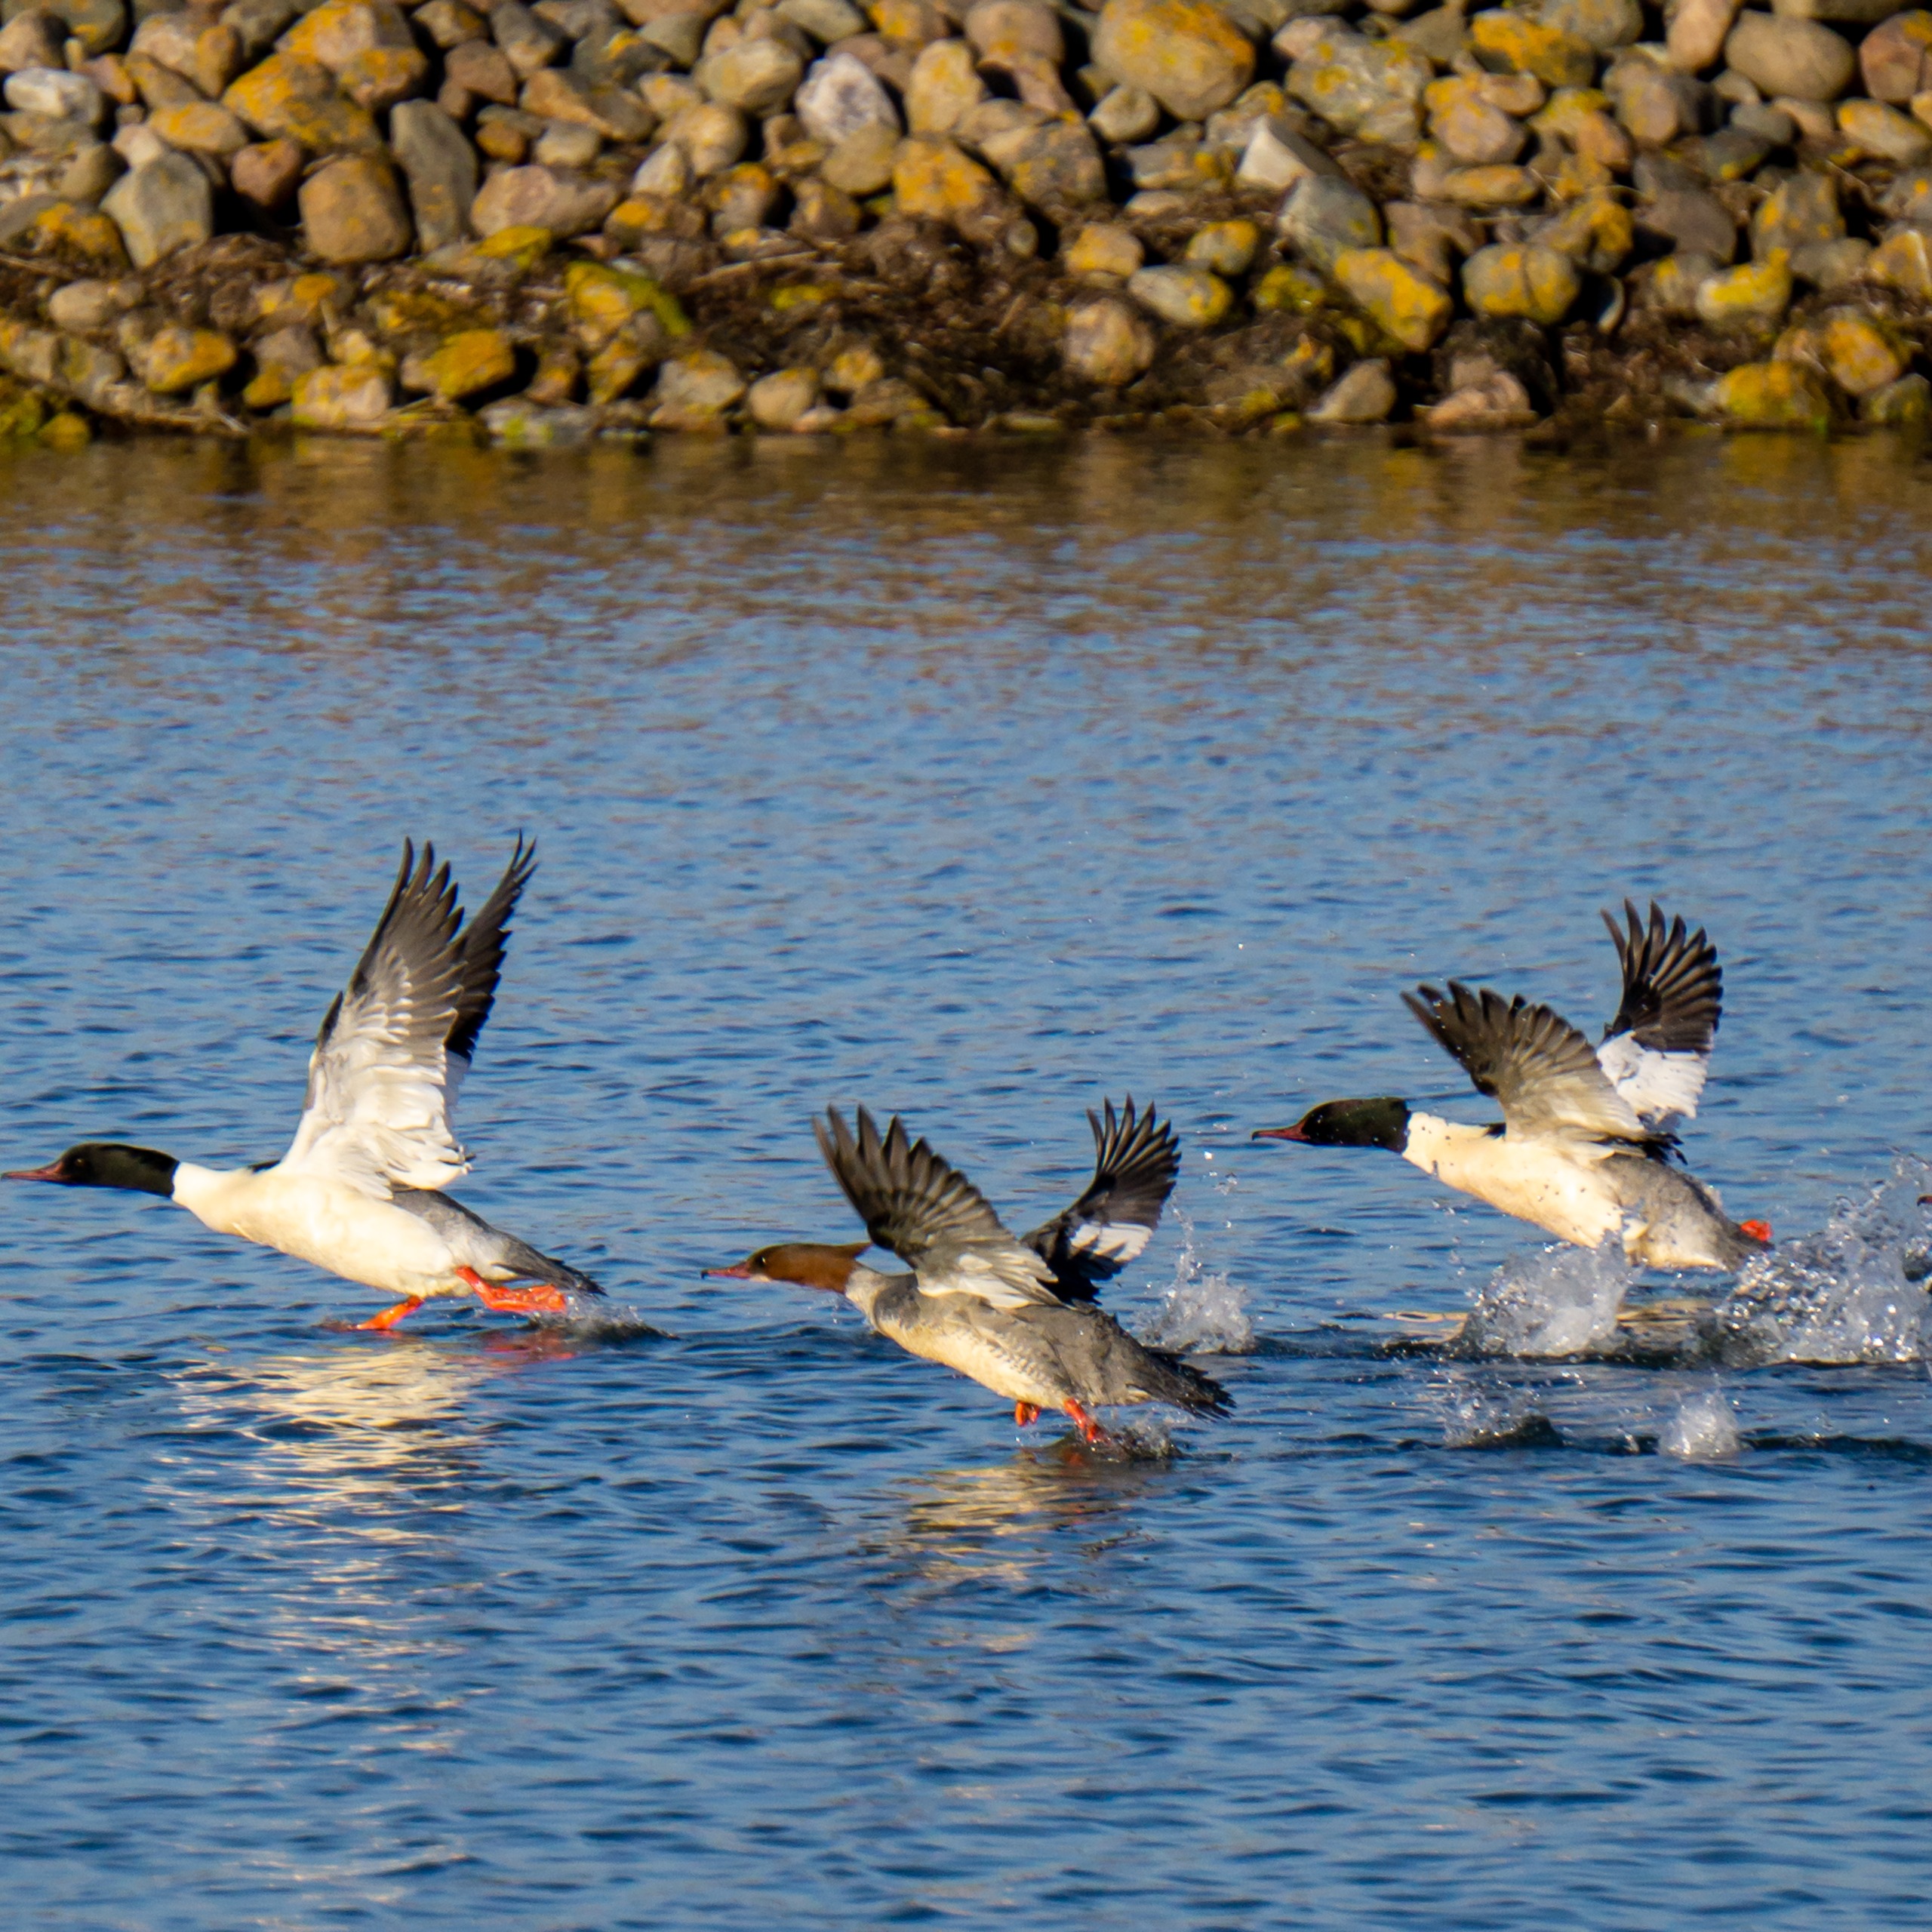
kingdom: Animalia
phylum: Chordata
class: Aves
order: Anseriformes
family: Anatidae
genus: Mergus
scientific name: Mergus merganser
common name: Stor skallesluger
